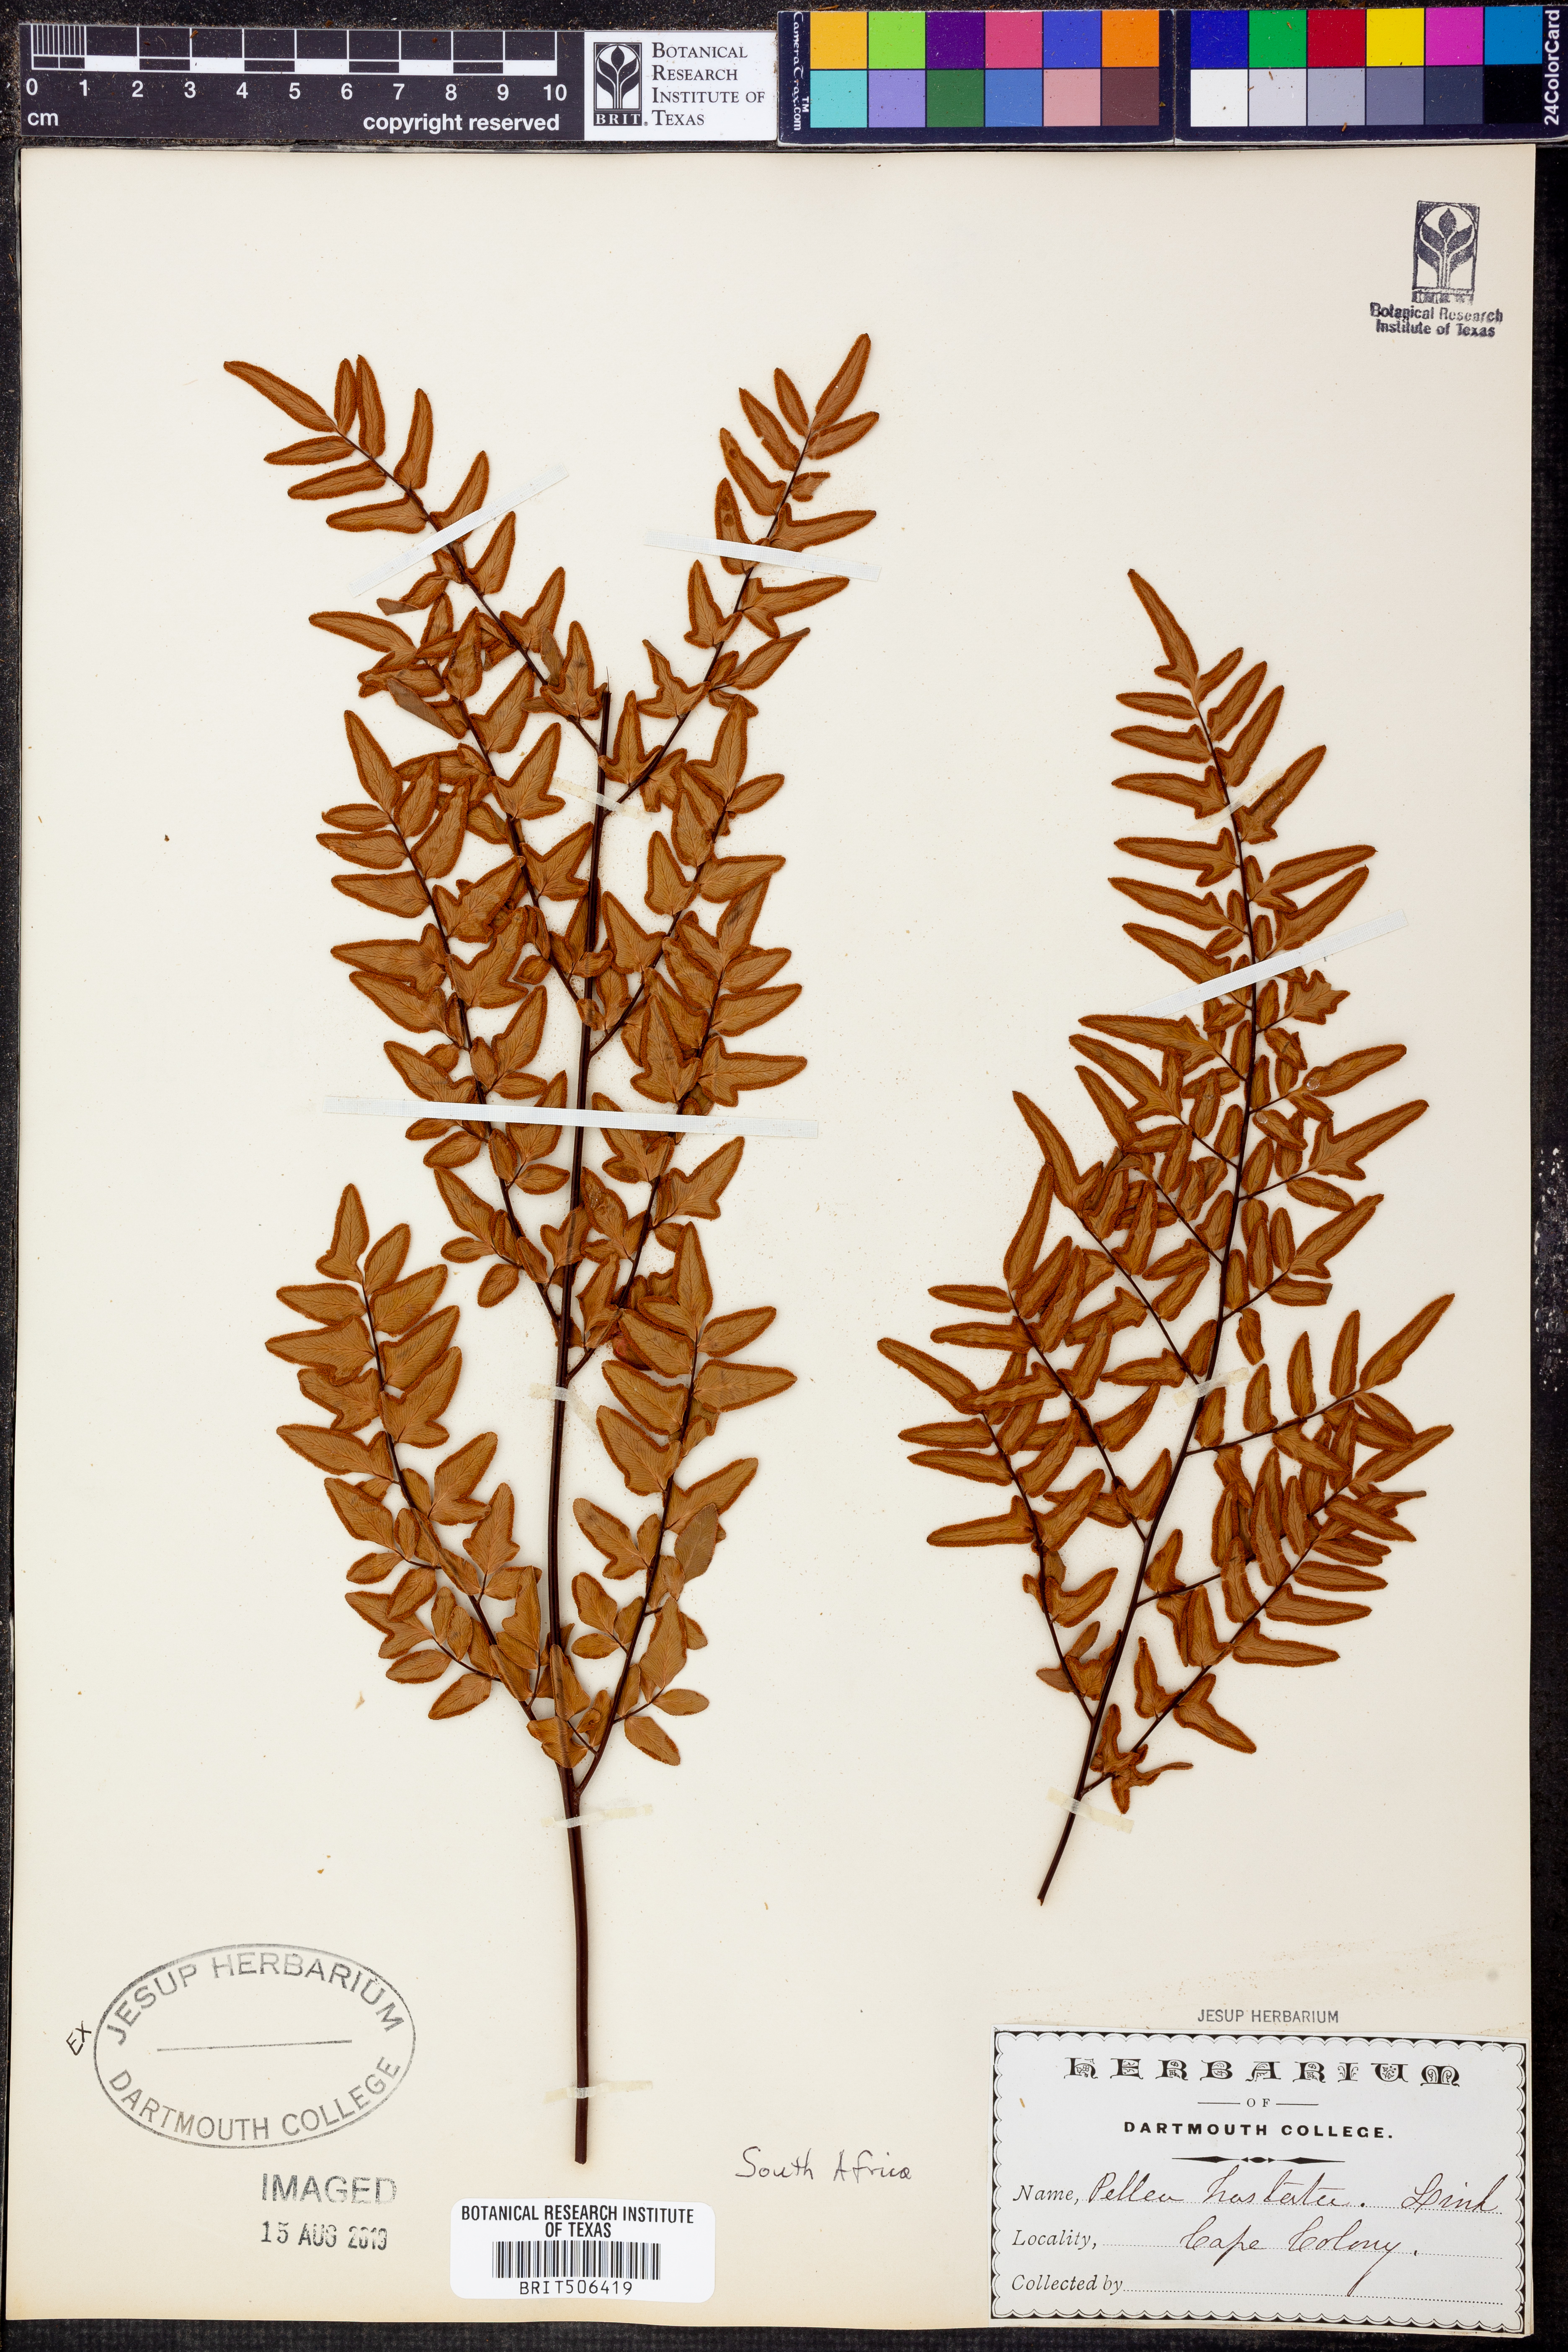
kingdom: Plantae
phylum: Tracheophyta
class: Polypodiopsida
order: Polypodiales
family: Pteridaceae
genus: Cheilanthes
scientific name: Cheilanthes hastata
